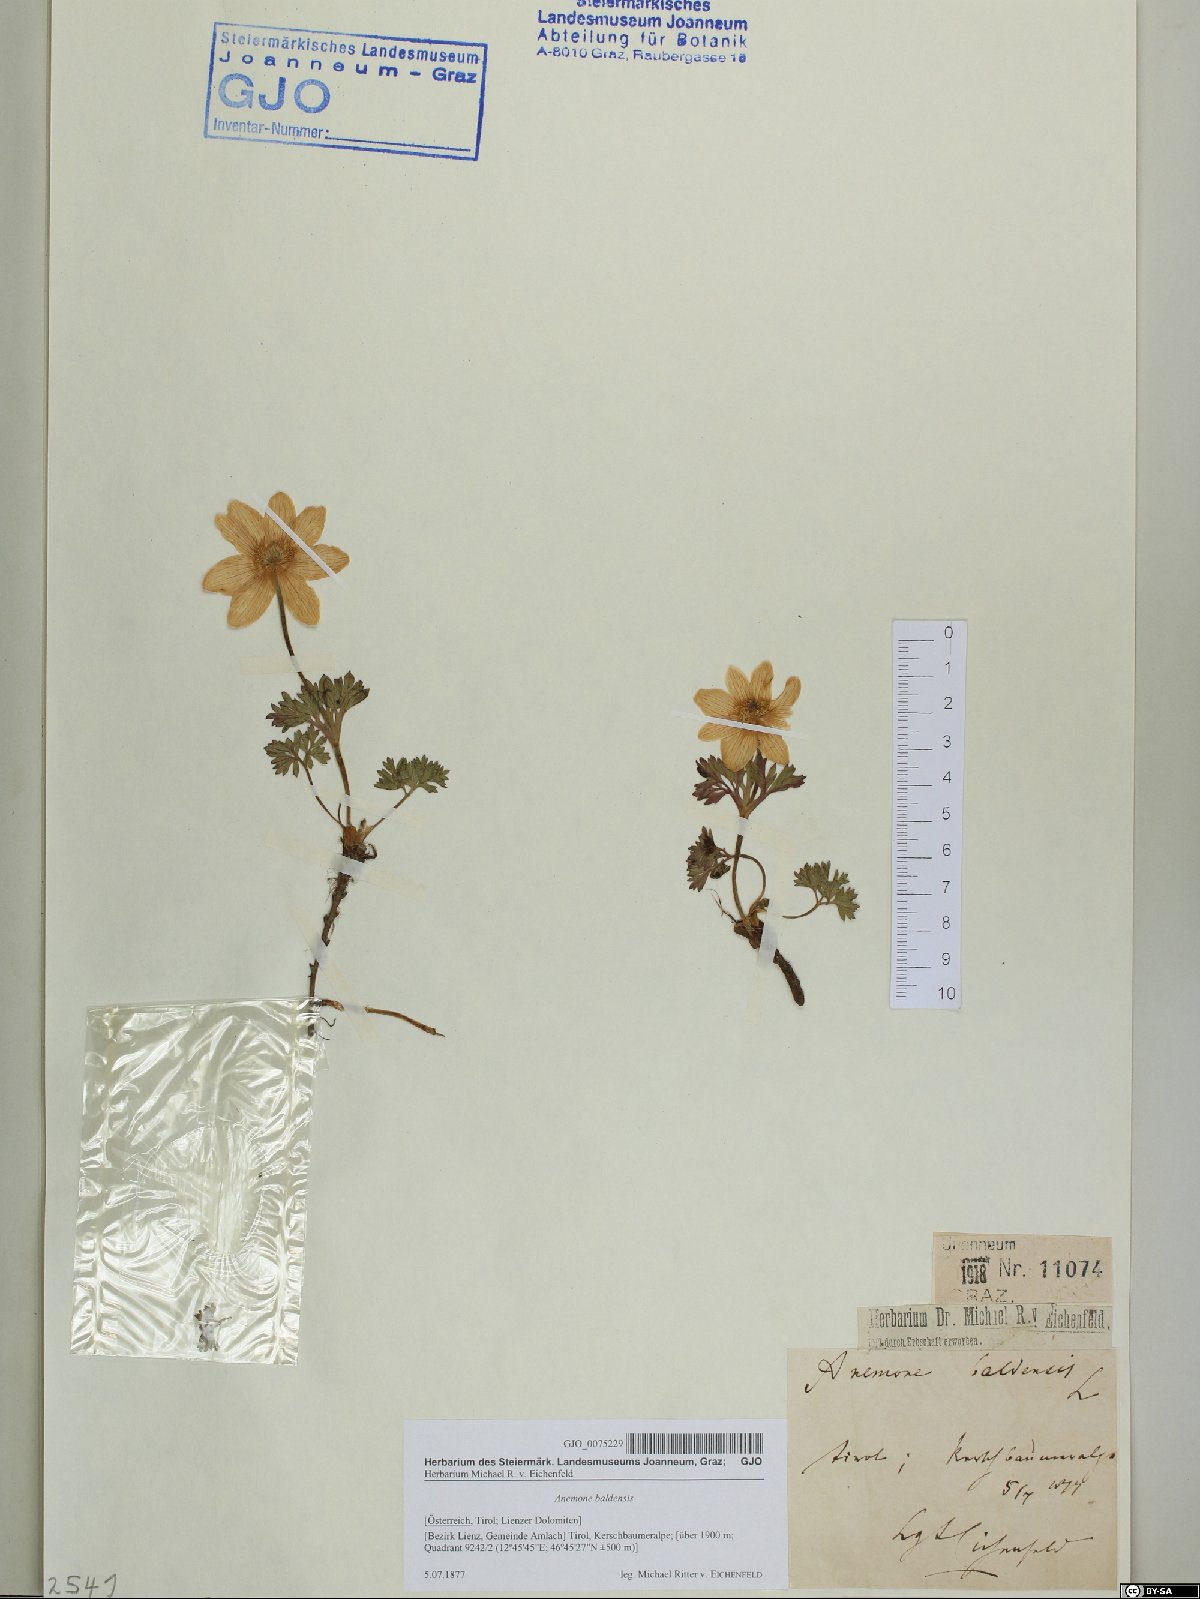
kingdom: Plantae
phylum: Tracheophyta
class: Magnoliopsida
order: Ranunculales
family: Ranunculaceae
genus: Anemone
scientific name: Anemone baldensis
